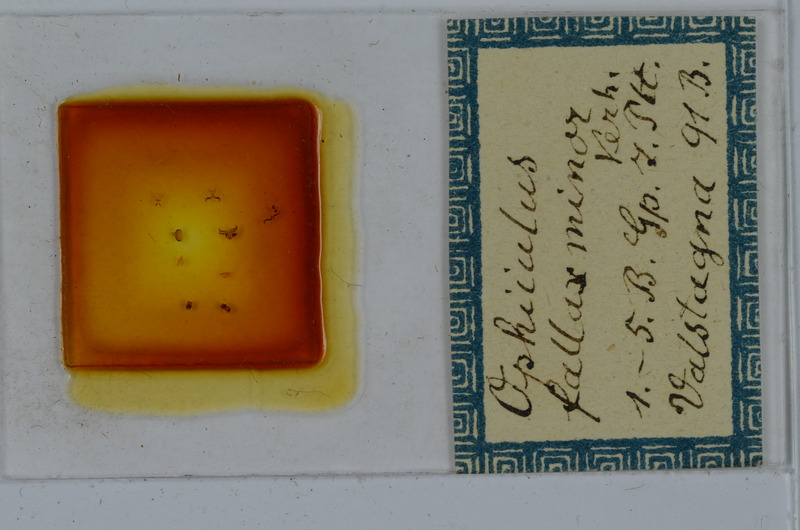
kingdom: Animalia
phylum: Arthropoda
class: Diplopoda
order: Julida
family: Julidae
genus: Ophyiulus
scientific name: Ophyiulus pilosus
